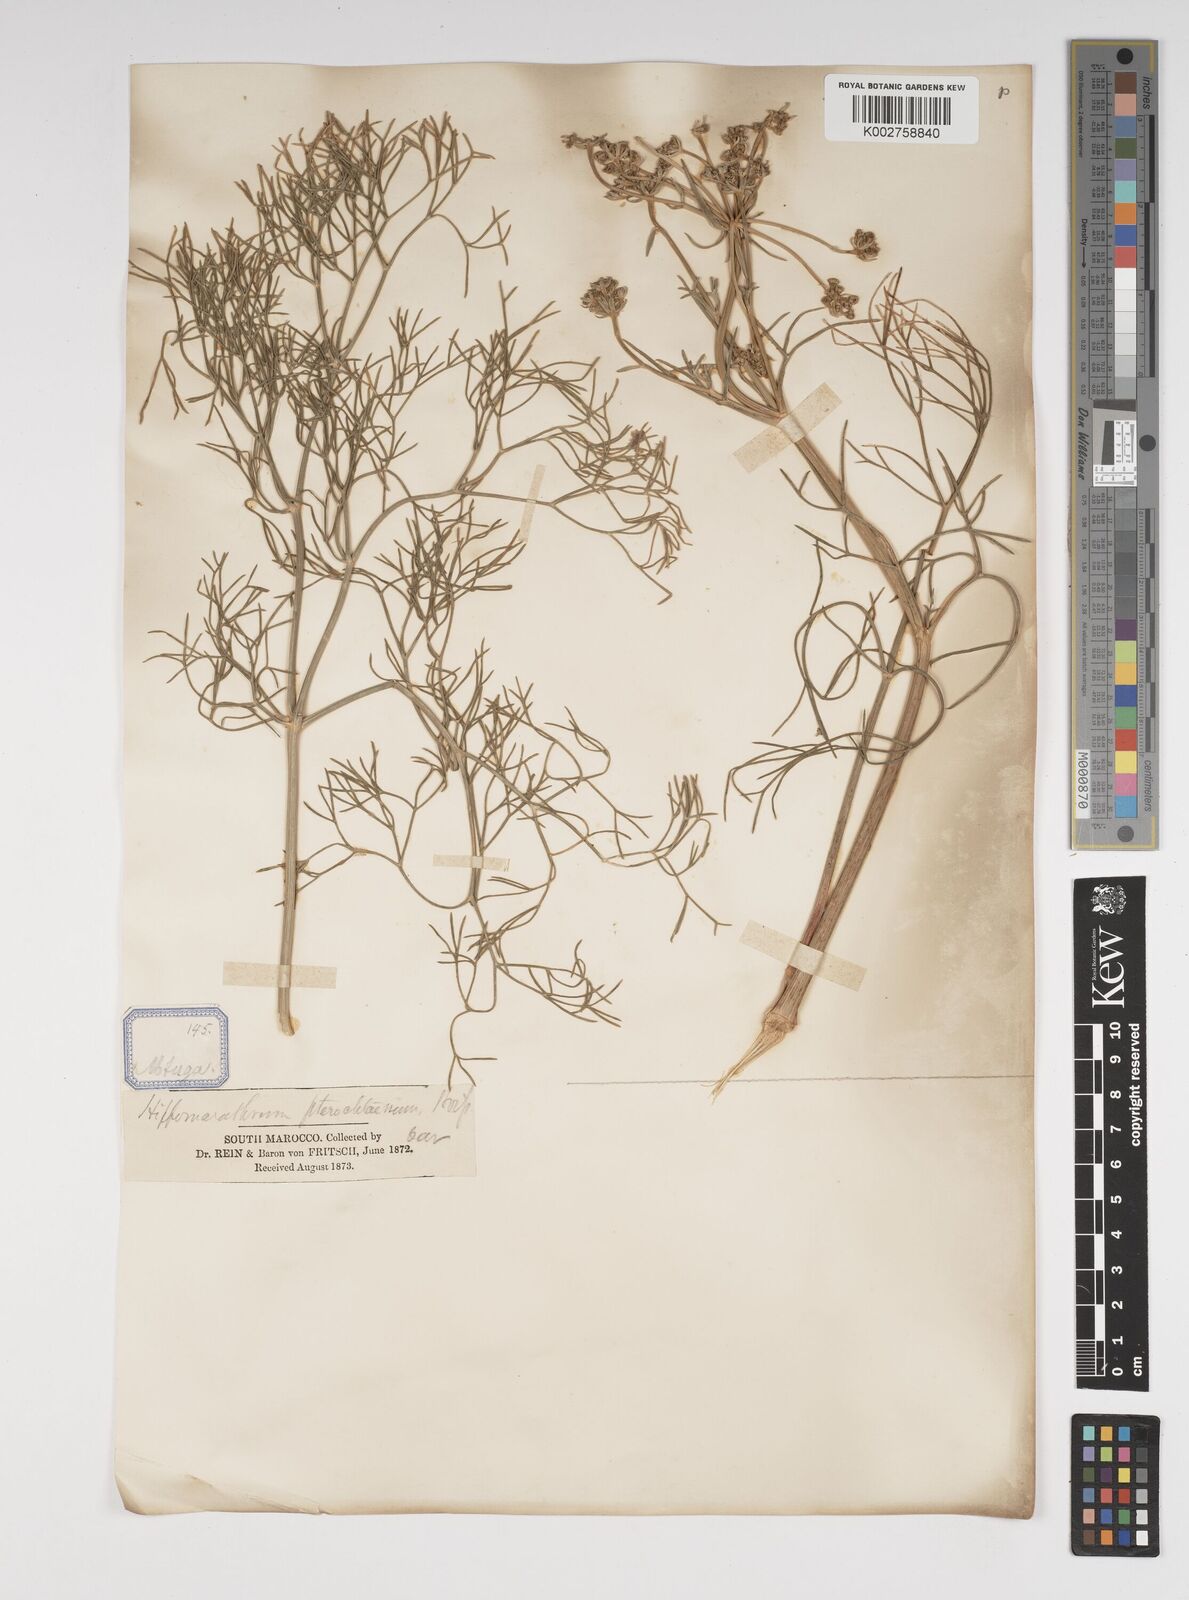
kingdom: Plantae
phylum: Tracheophyta
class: Magnoliopsida
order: Apiales
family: Apiaceae
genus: Cachrys
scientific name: Cachrys sicula
